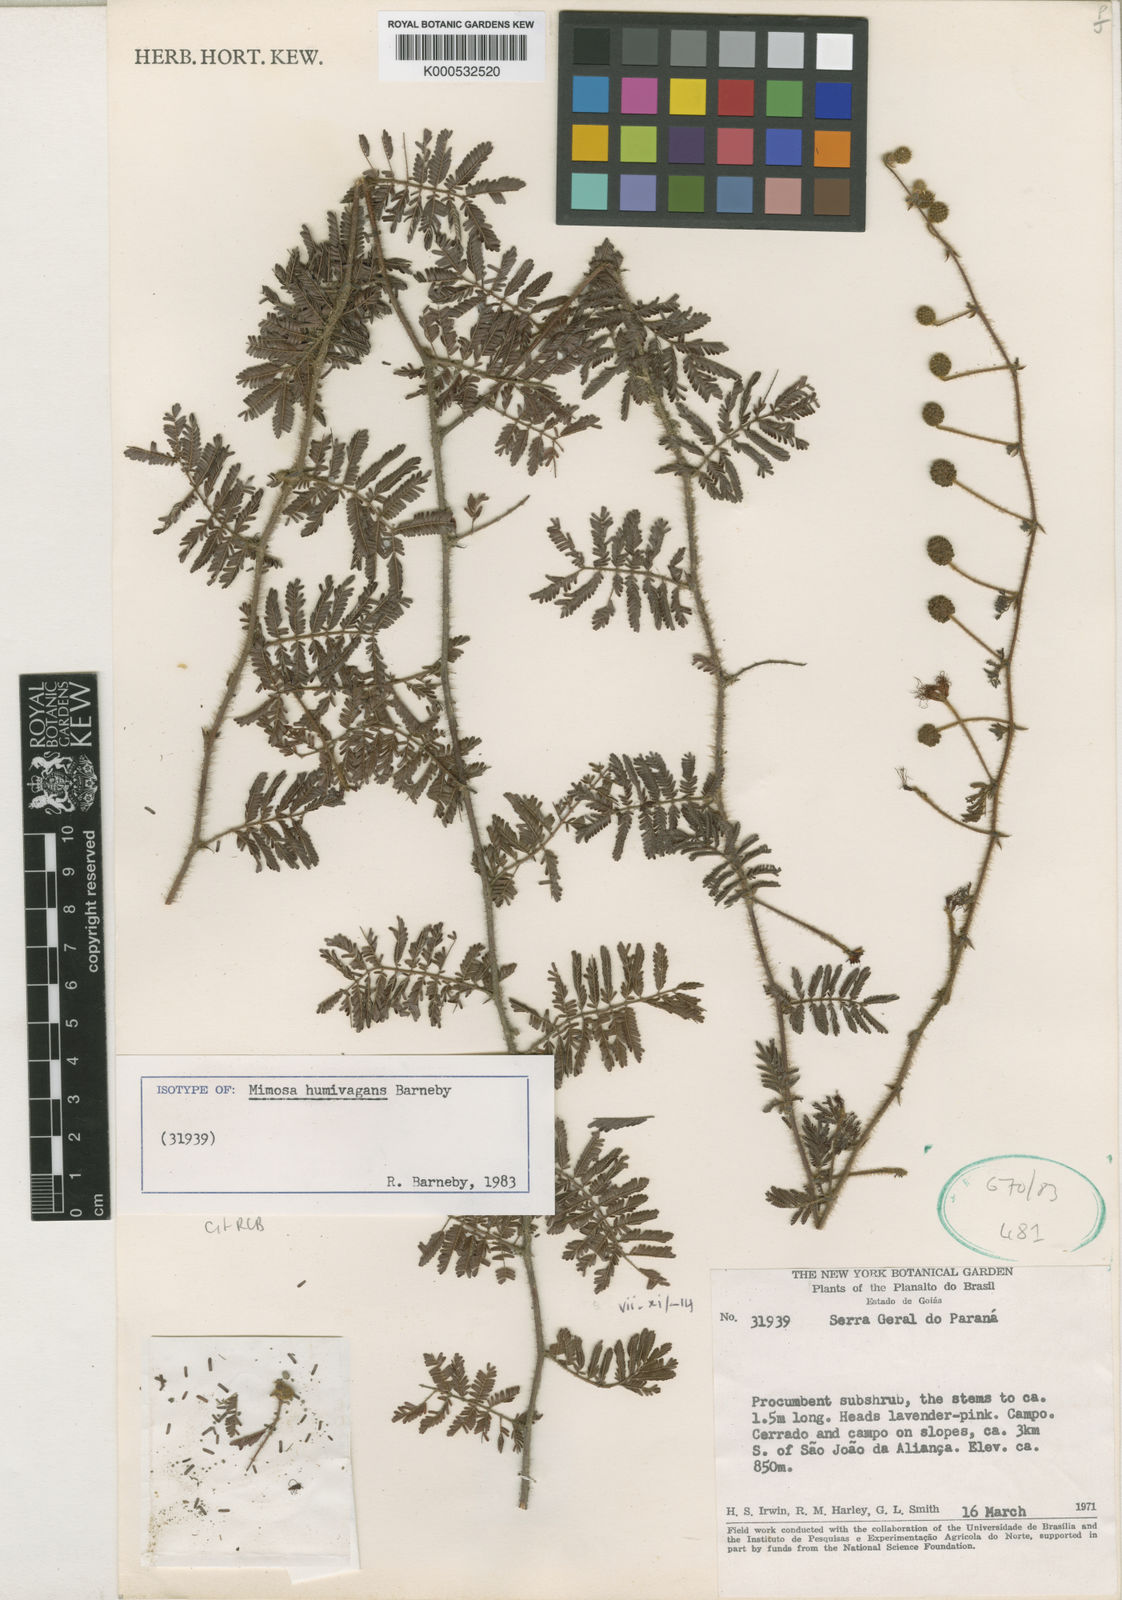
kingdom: Plantae
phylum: Tracheophyta
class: Magnoliopsida
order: Fabales
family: Fabaceae
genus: Mimosa
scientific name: Mimosa humivagans
